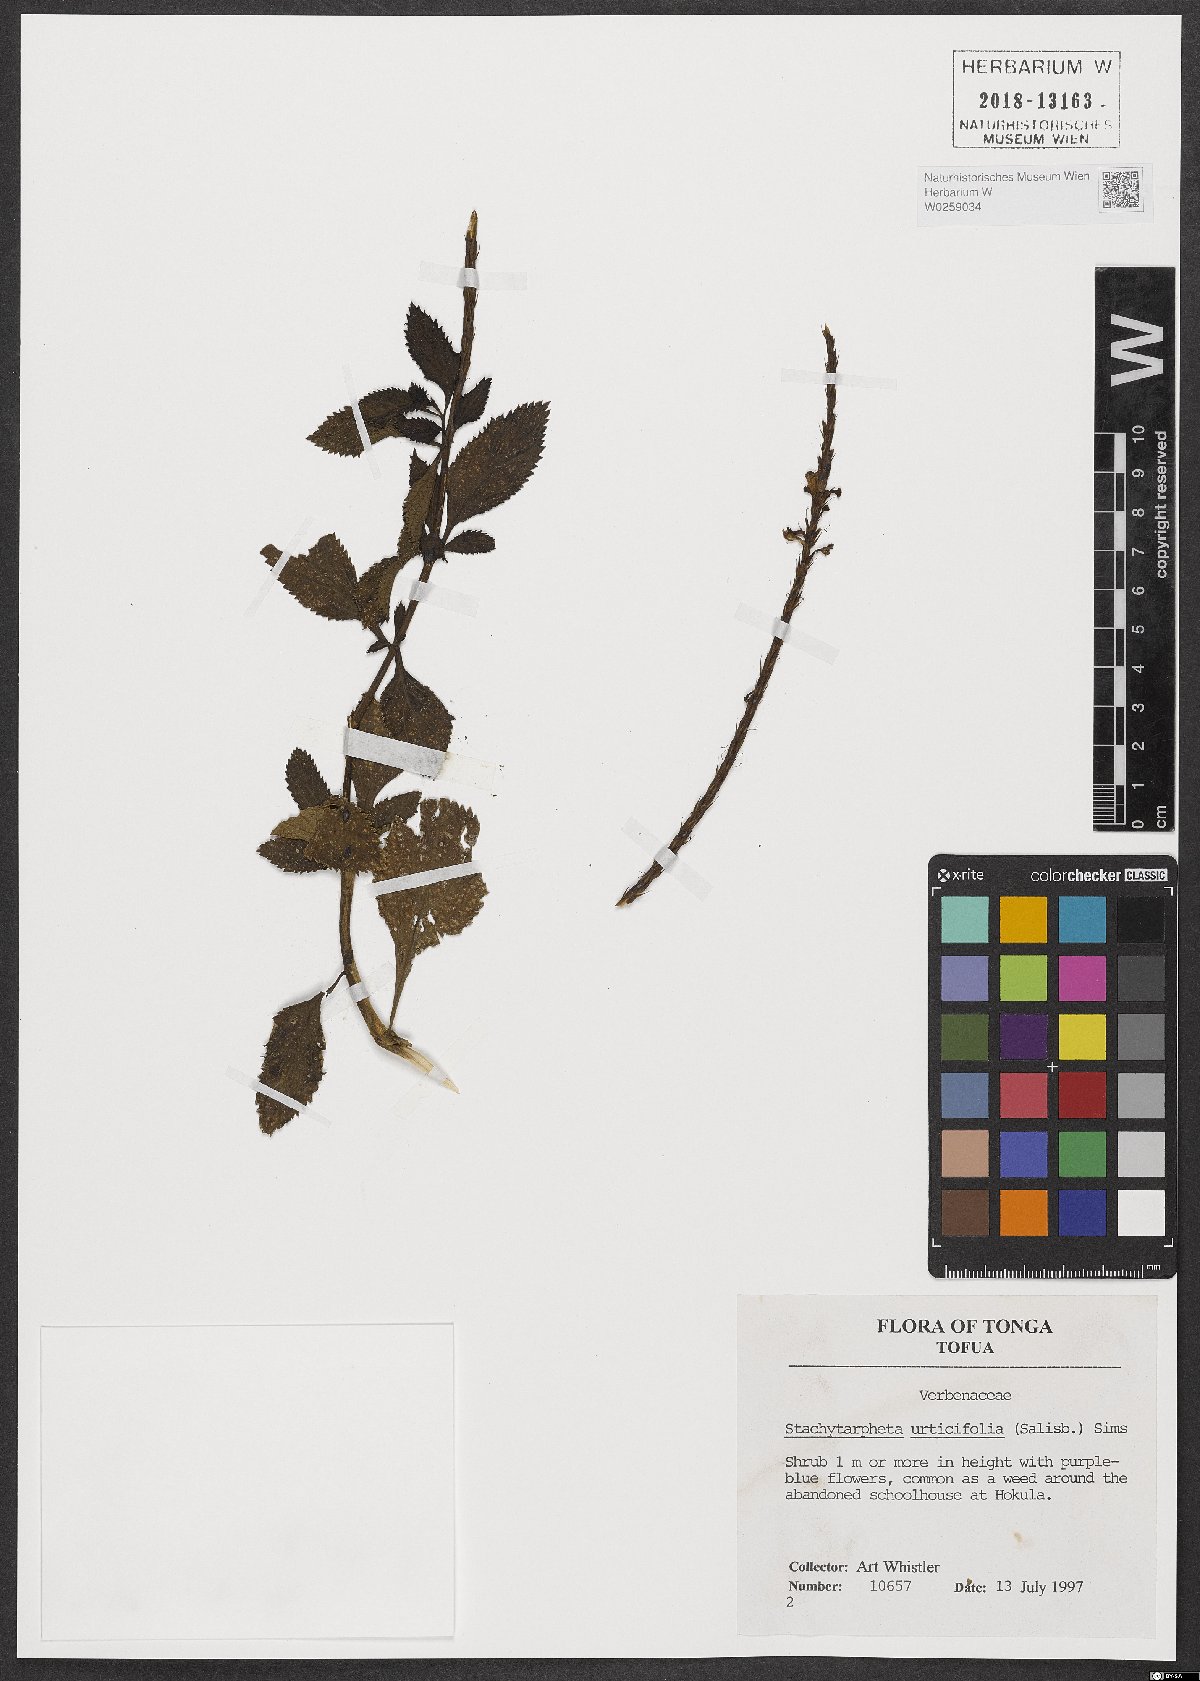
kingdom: Plantae
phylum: Tracheophyta
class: Magnoliopsida
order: Lamiales
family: Verbenaceae
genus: Stachytarpheta
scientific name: Stachytarpheta urticifolia
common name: Nettleleaf velvetberry
